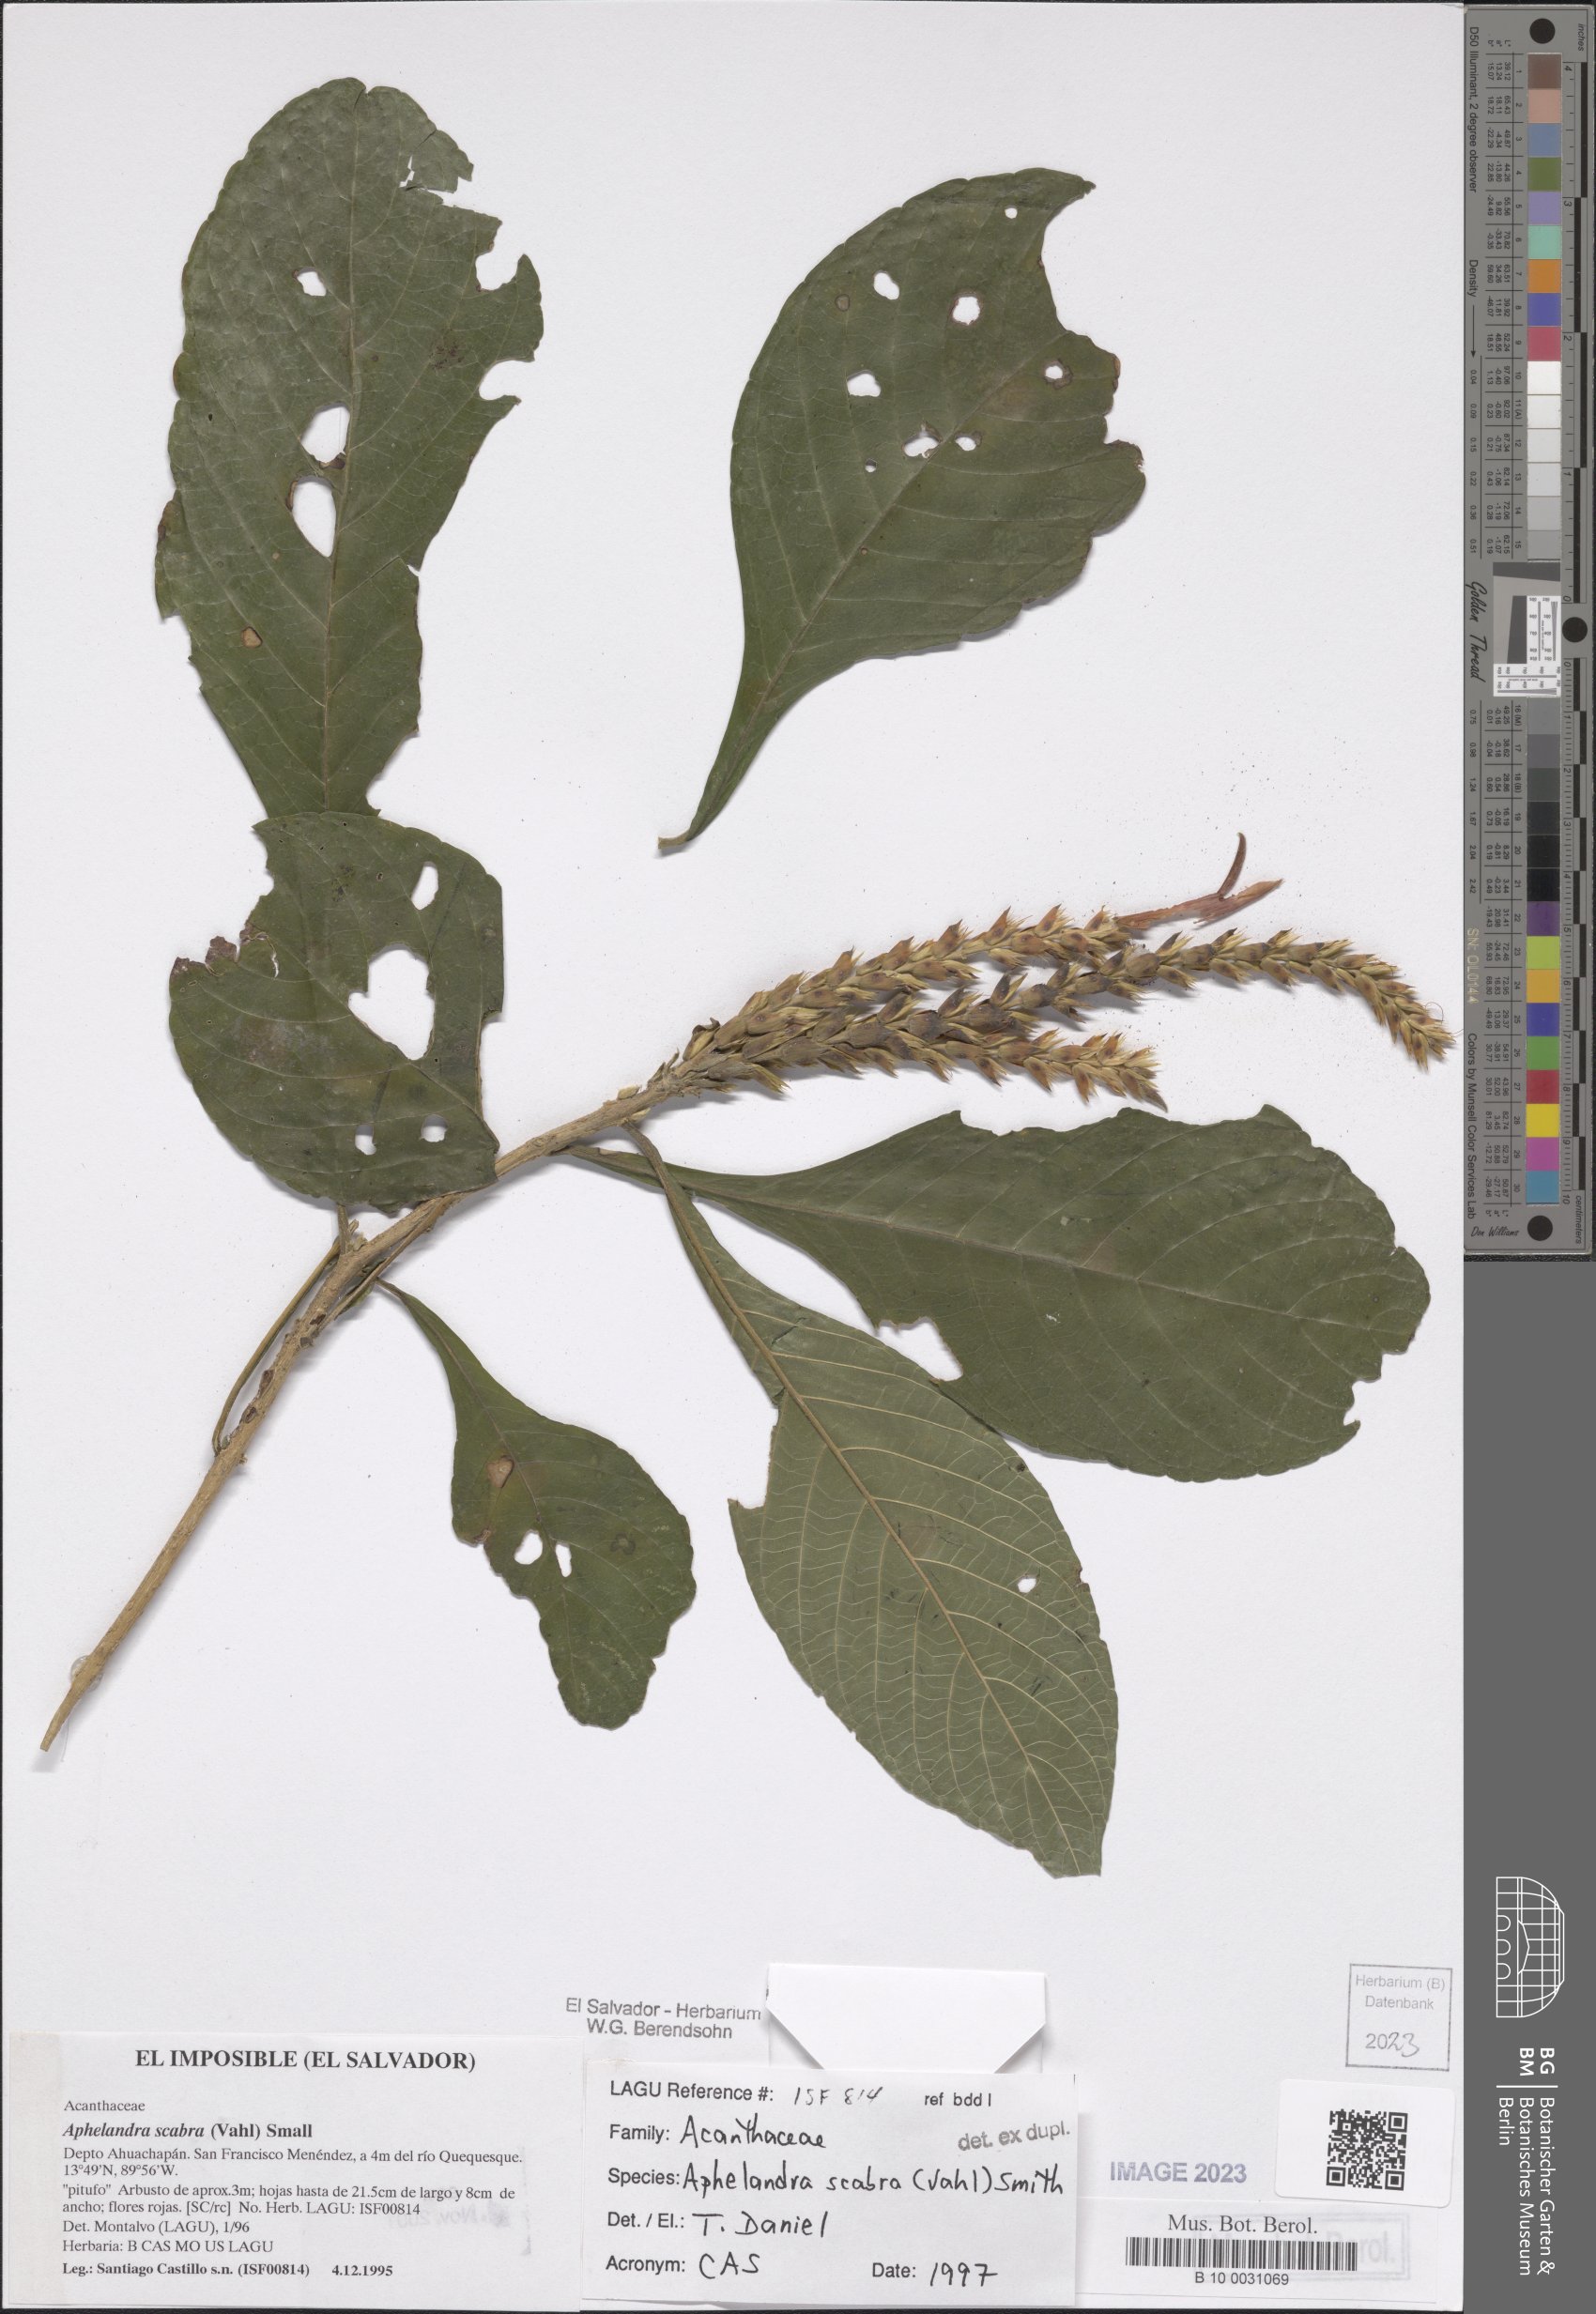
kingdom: Plantae
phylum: Tracheophyta
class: Magnoliopsida
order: Lamiales
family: Acanthaceae
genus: Aphelandra
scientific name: Aphelandra scabra
